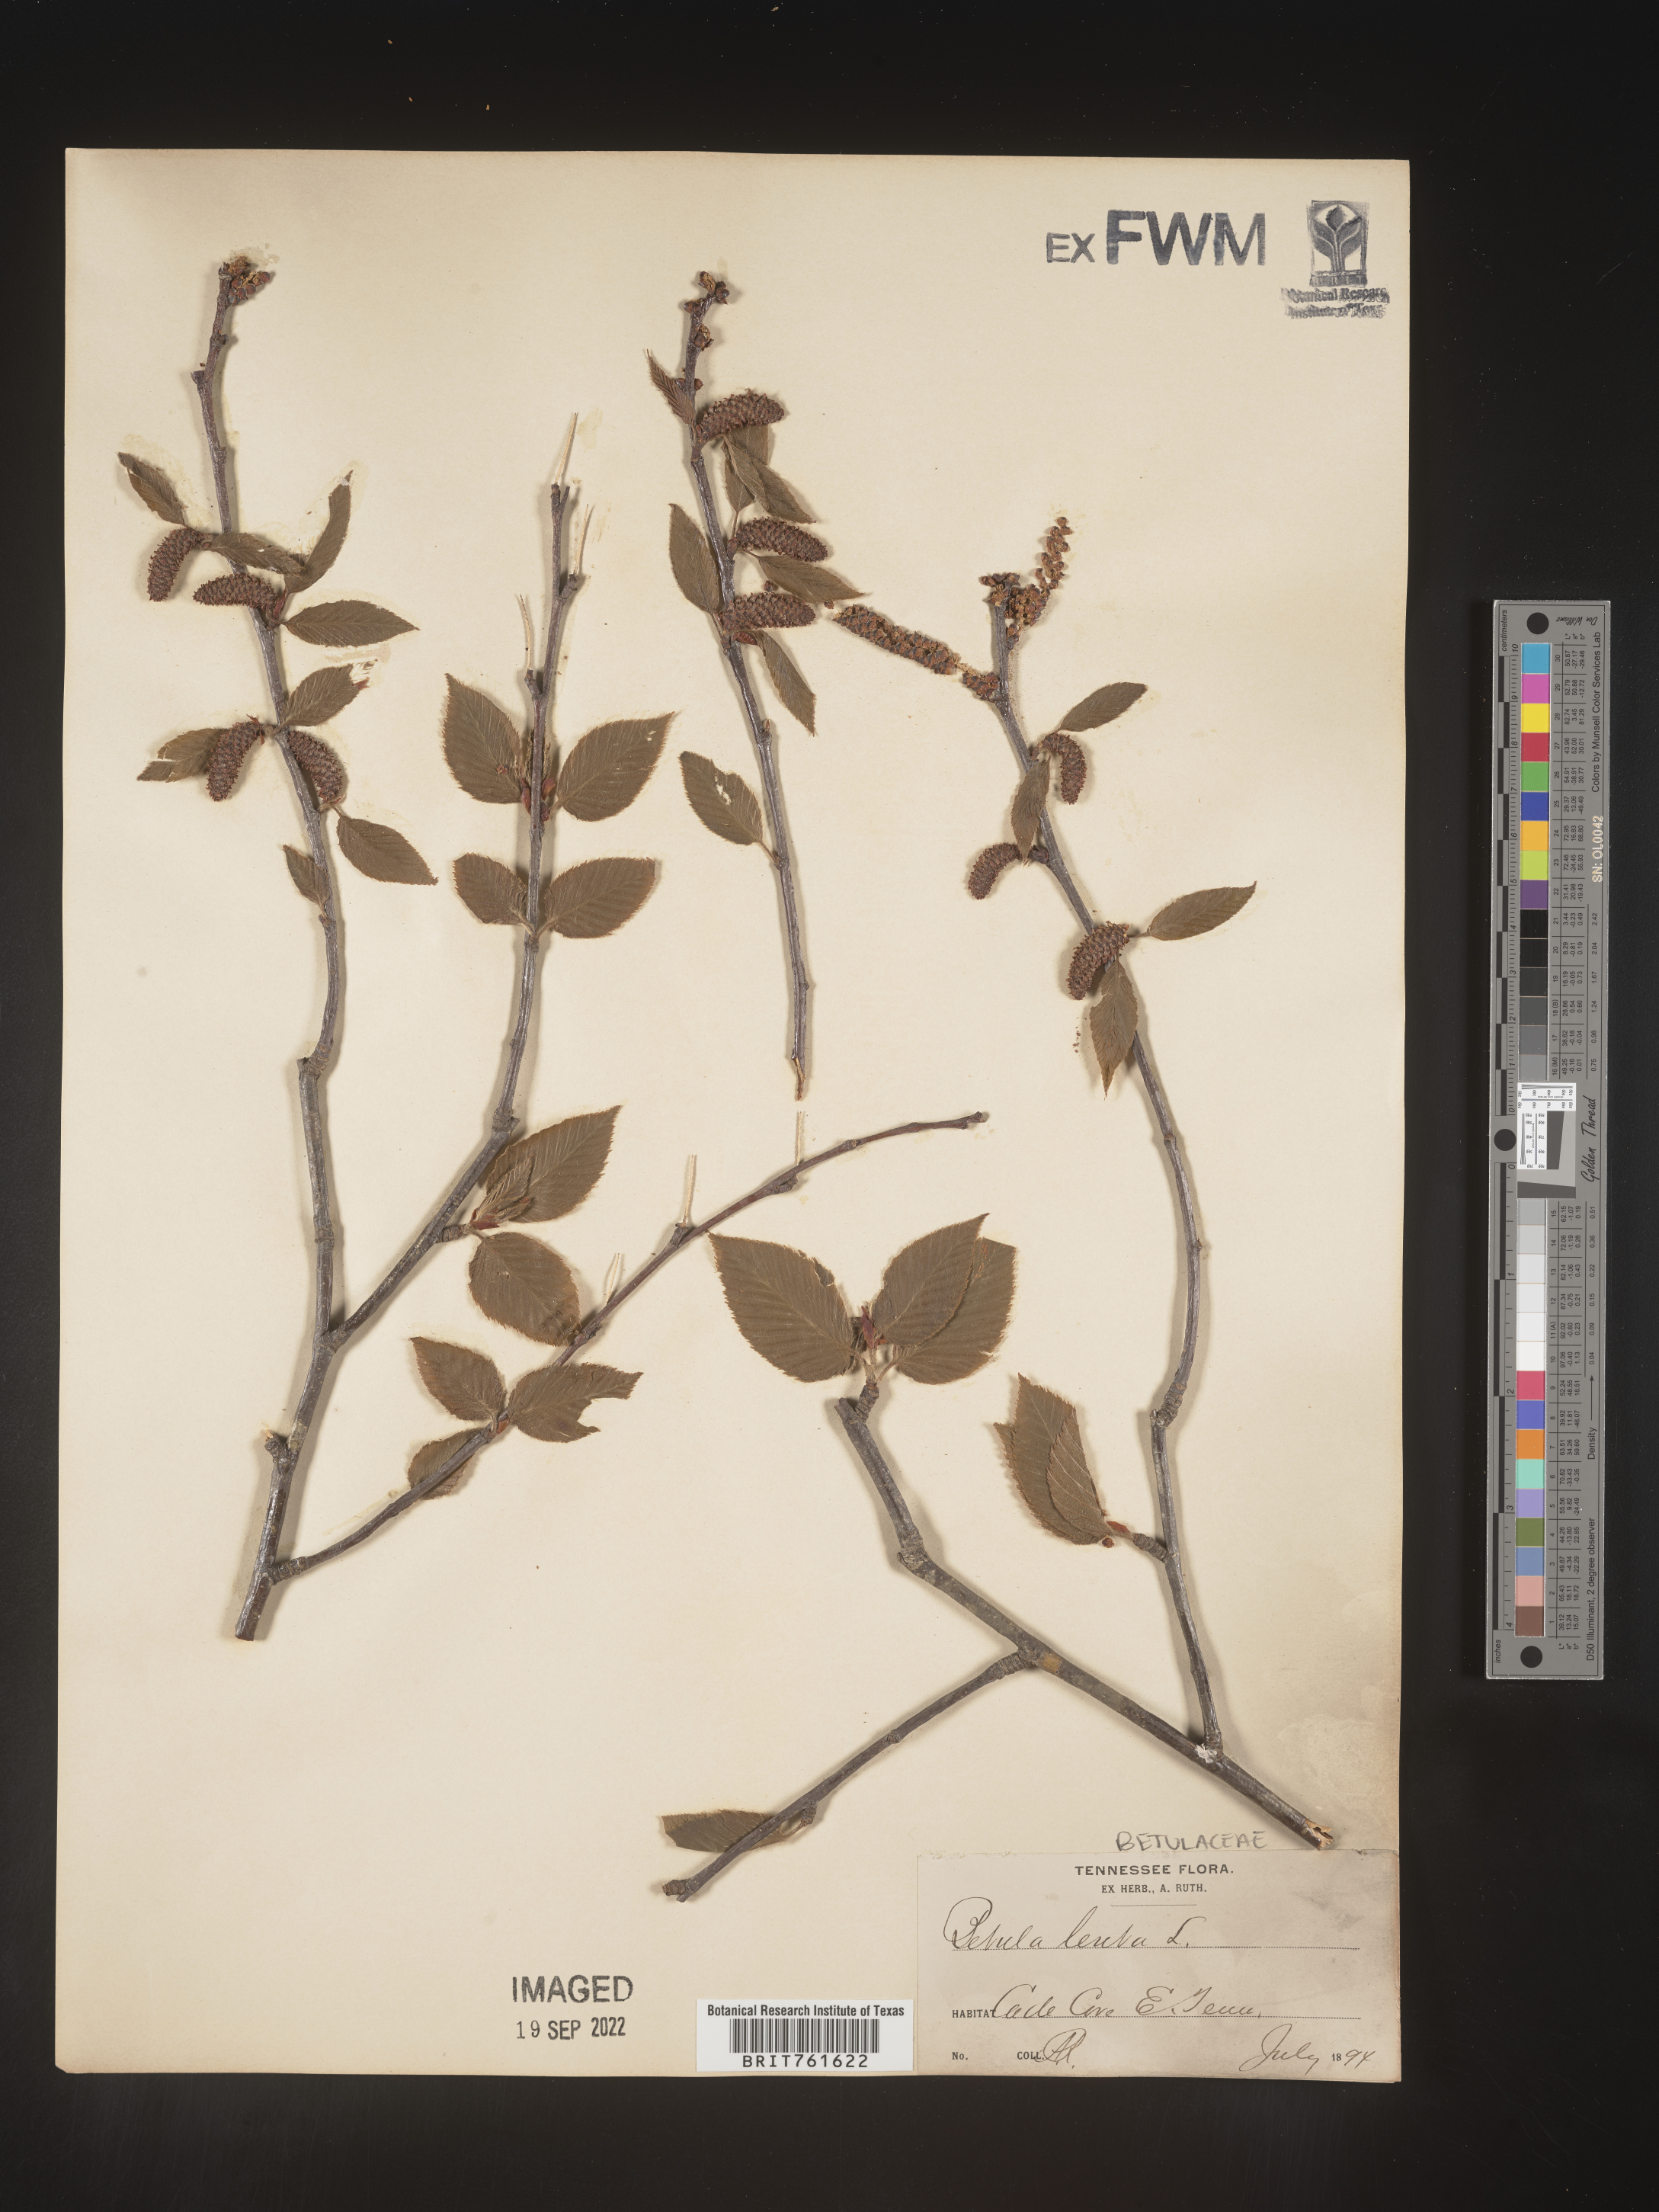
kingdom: Plantae
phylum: Tracheophyta
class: Magnoliopsida
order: Fagales
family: Betulaceae
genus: Betula
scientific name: Betula lenta
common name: Black birch
